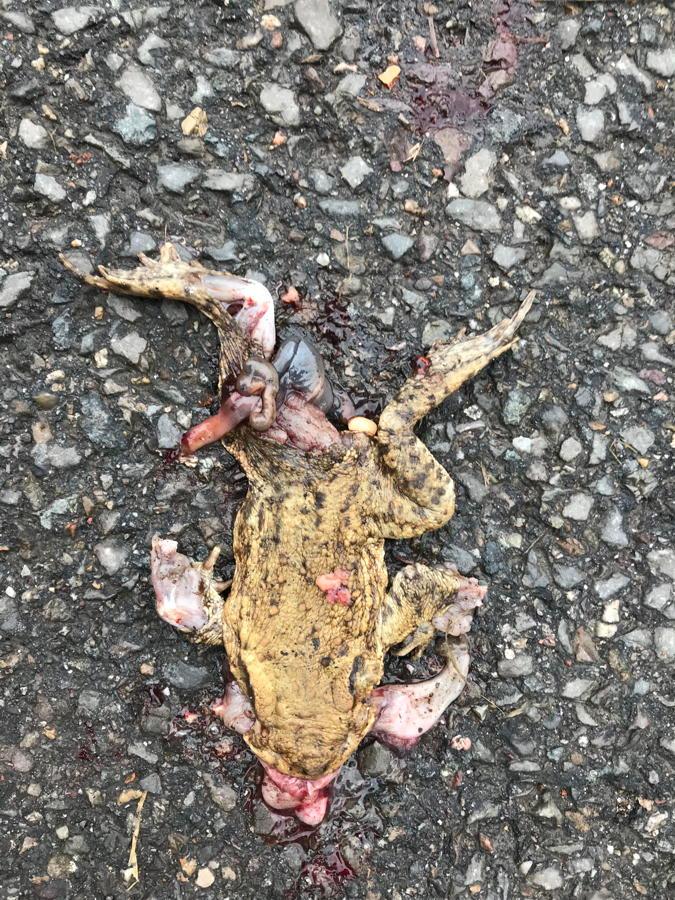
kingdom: Animalia
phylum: Chordata
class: Amphibia
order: Anura
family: Bufonidae
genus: Bufo
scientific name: Bufo bufo
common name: Common toad
